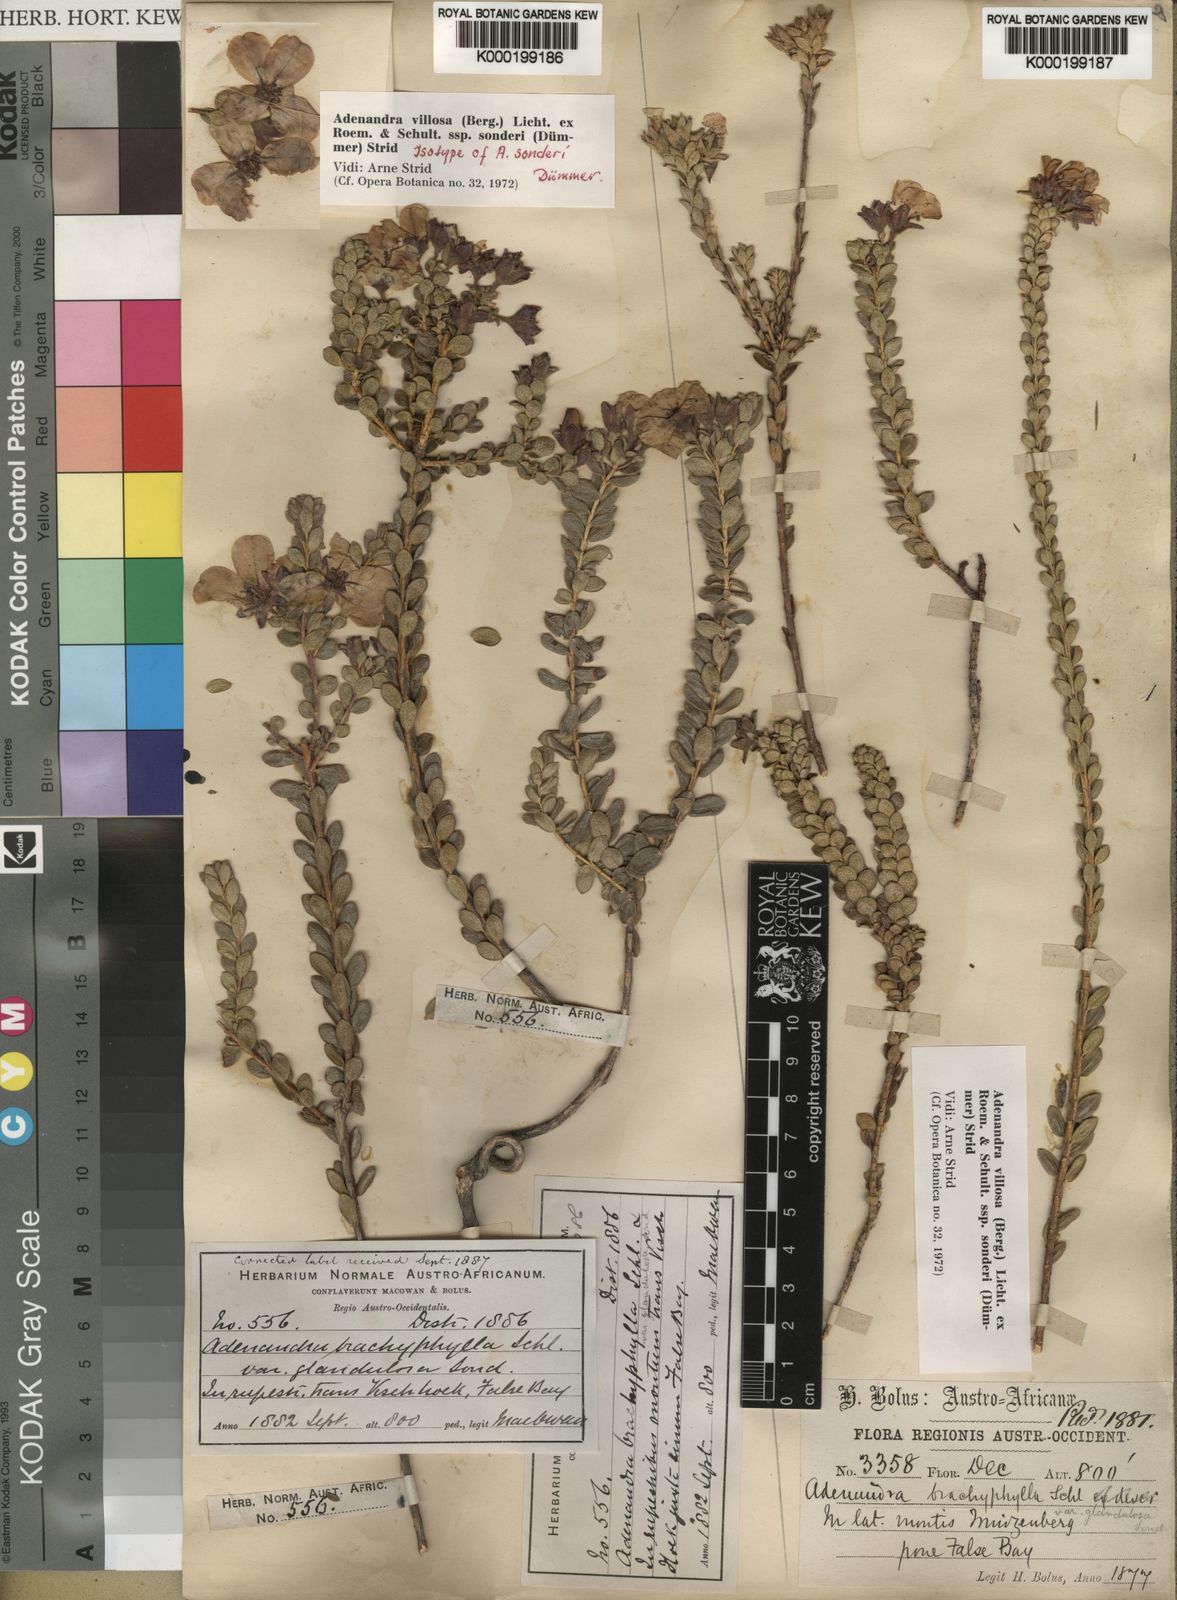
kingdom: Plantae
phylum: Tracheophyta
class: Magnoliopsida
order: Sapindales
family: Rutaceae
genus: Adenandra
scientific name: Adenandra villosa
